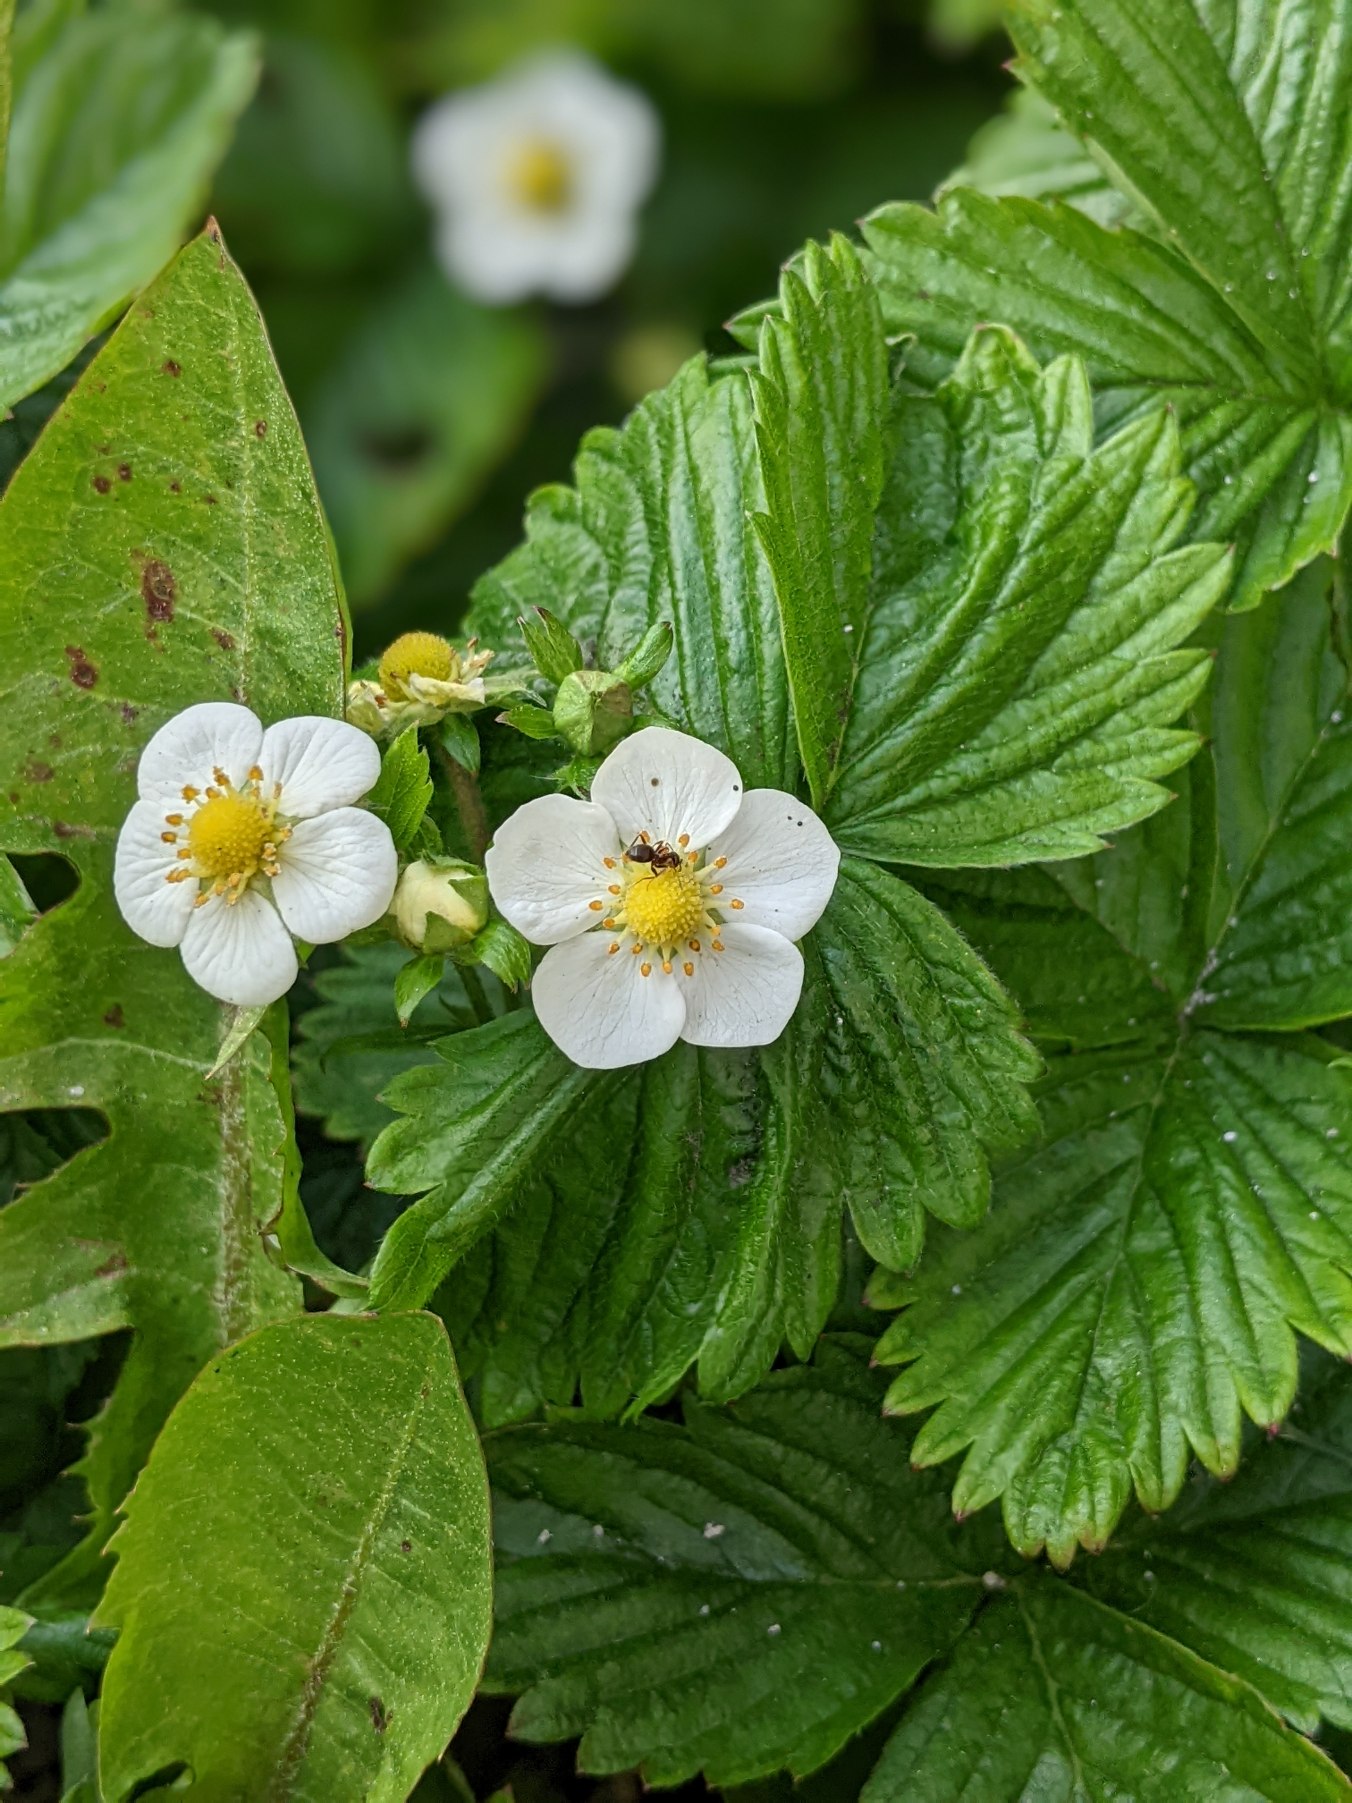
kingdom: Plantae
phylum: Tracheophyta
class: Magnoliopsida
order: Rosales
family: Rosaceae
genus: Fragaria
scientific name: Fragaria vesca
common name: Skov-jordbær
